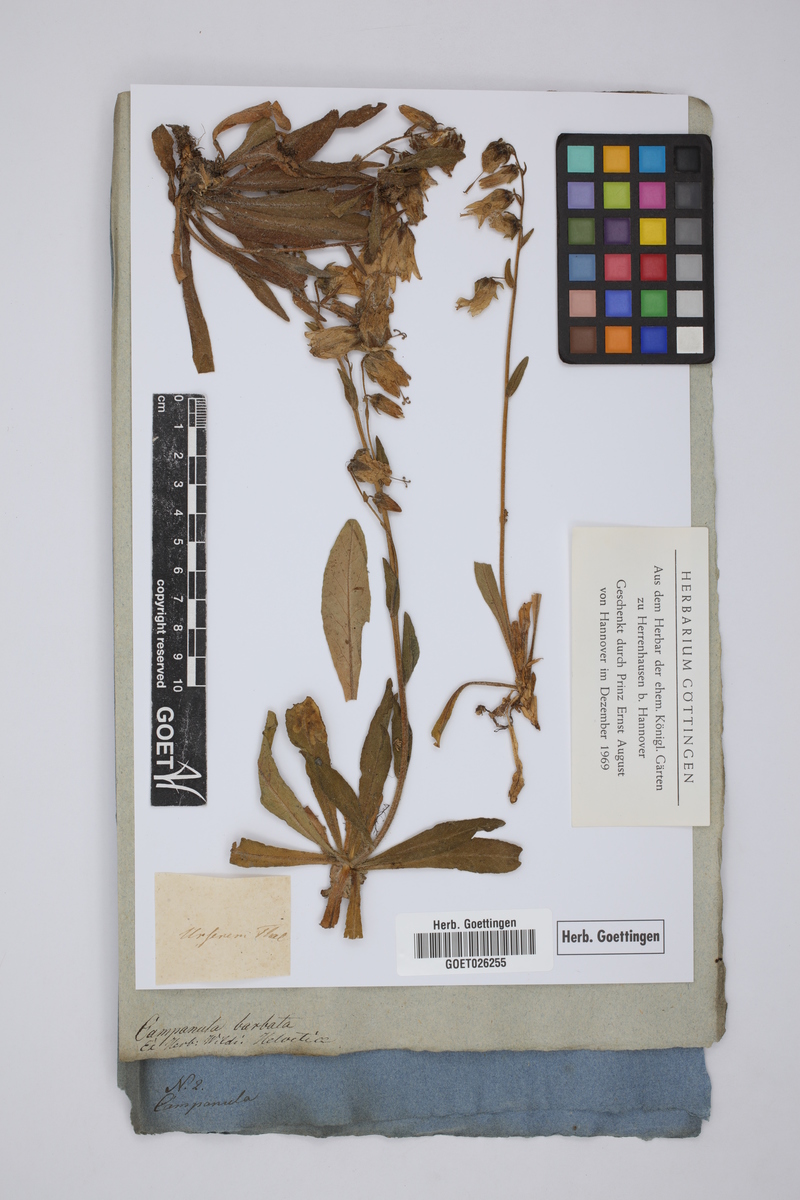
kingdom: Plantae
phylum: Tracheophyta
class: Magnoliopsida
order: Asterales
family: Campanulaceae
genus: Campanula
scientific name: Campanula barbata
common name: Bearded bellflower
